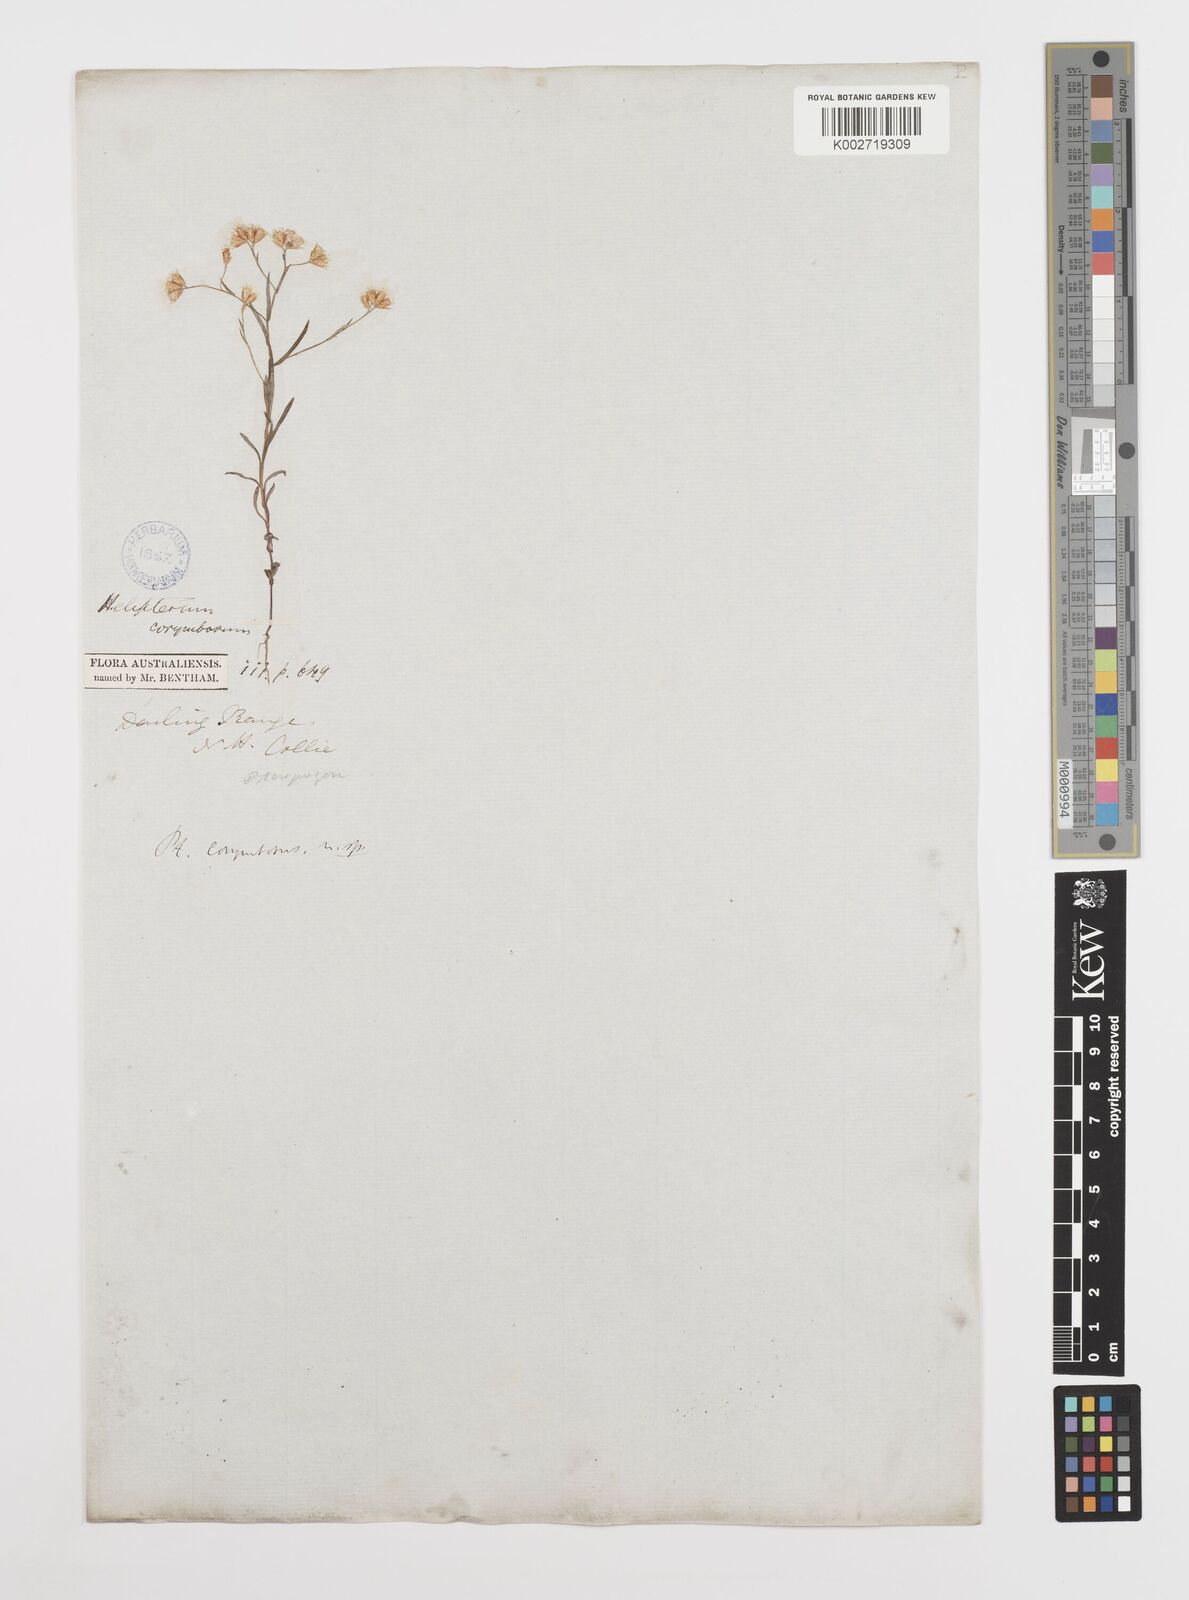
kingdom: Plantae
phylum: Tracheophyta
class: Magnoliopsida
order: Asterales
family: Asteraceae
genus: Rhodanthe
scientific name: Rhodanthe corymbosa
